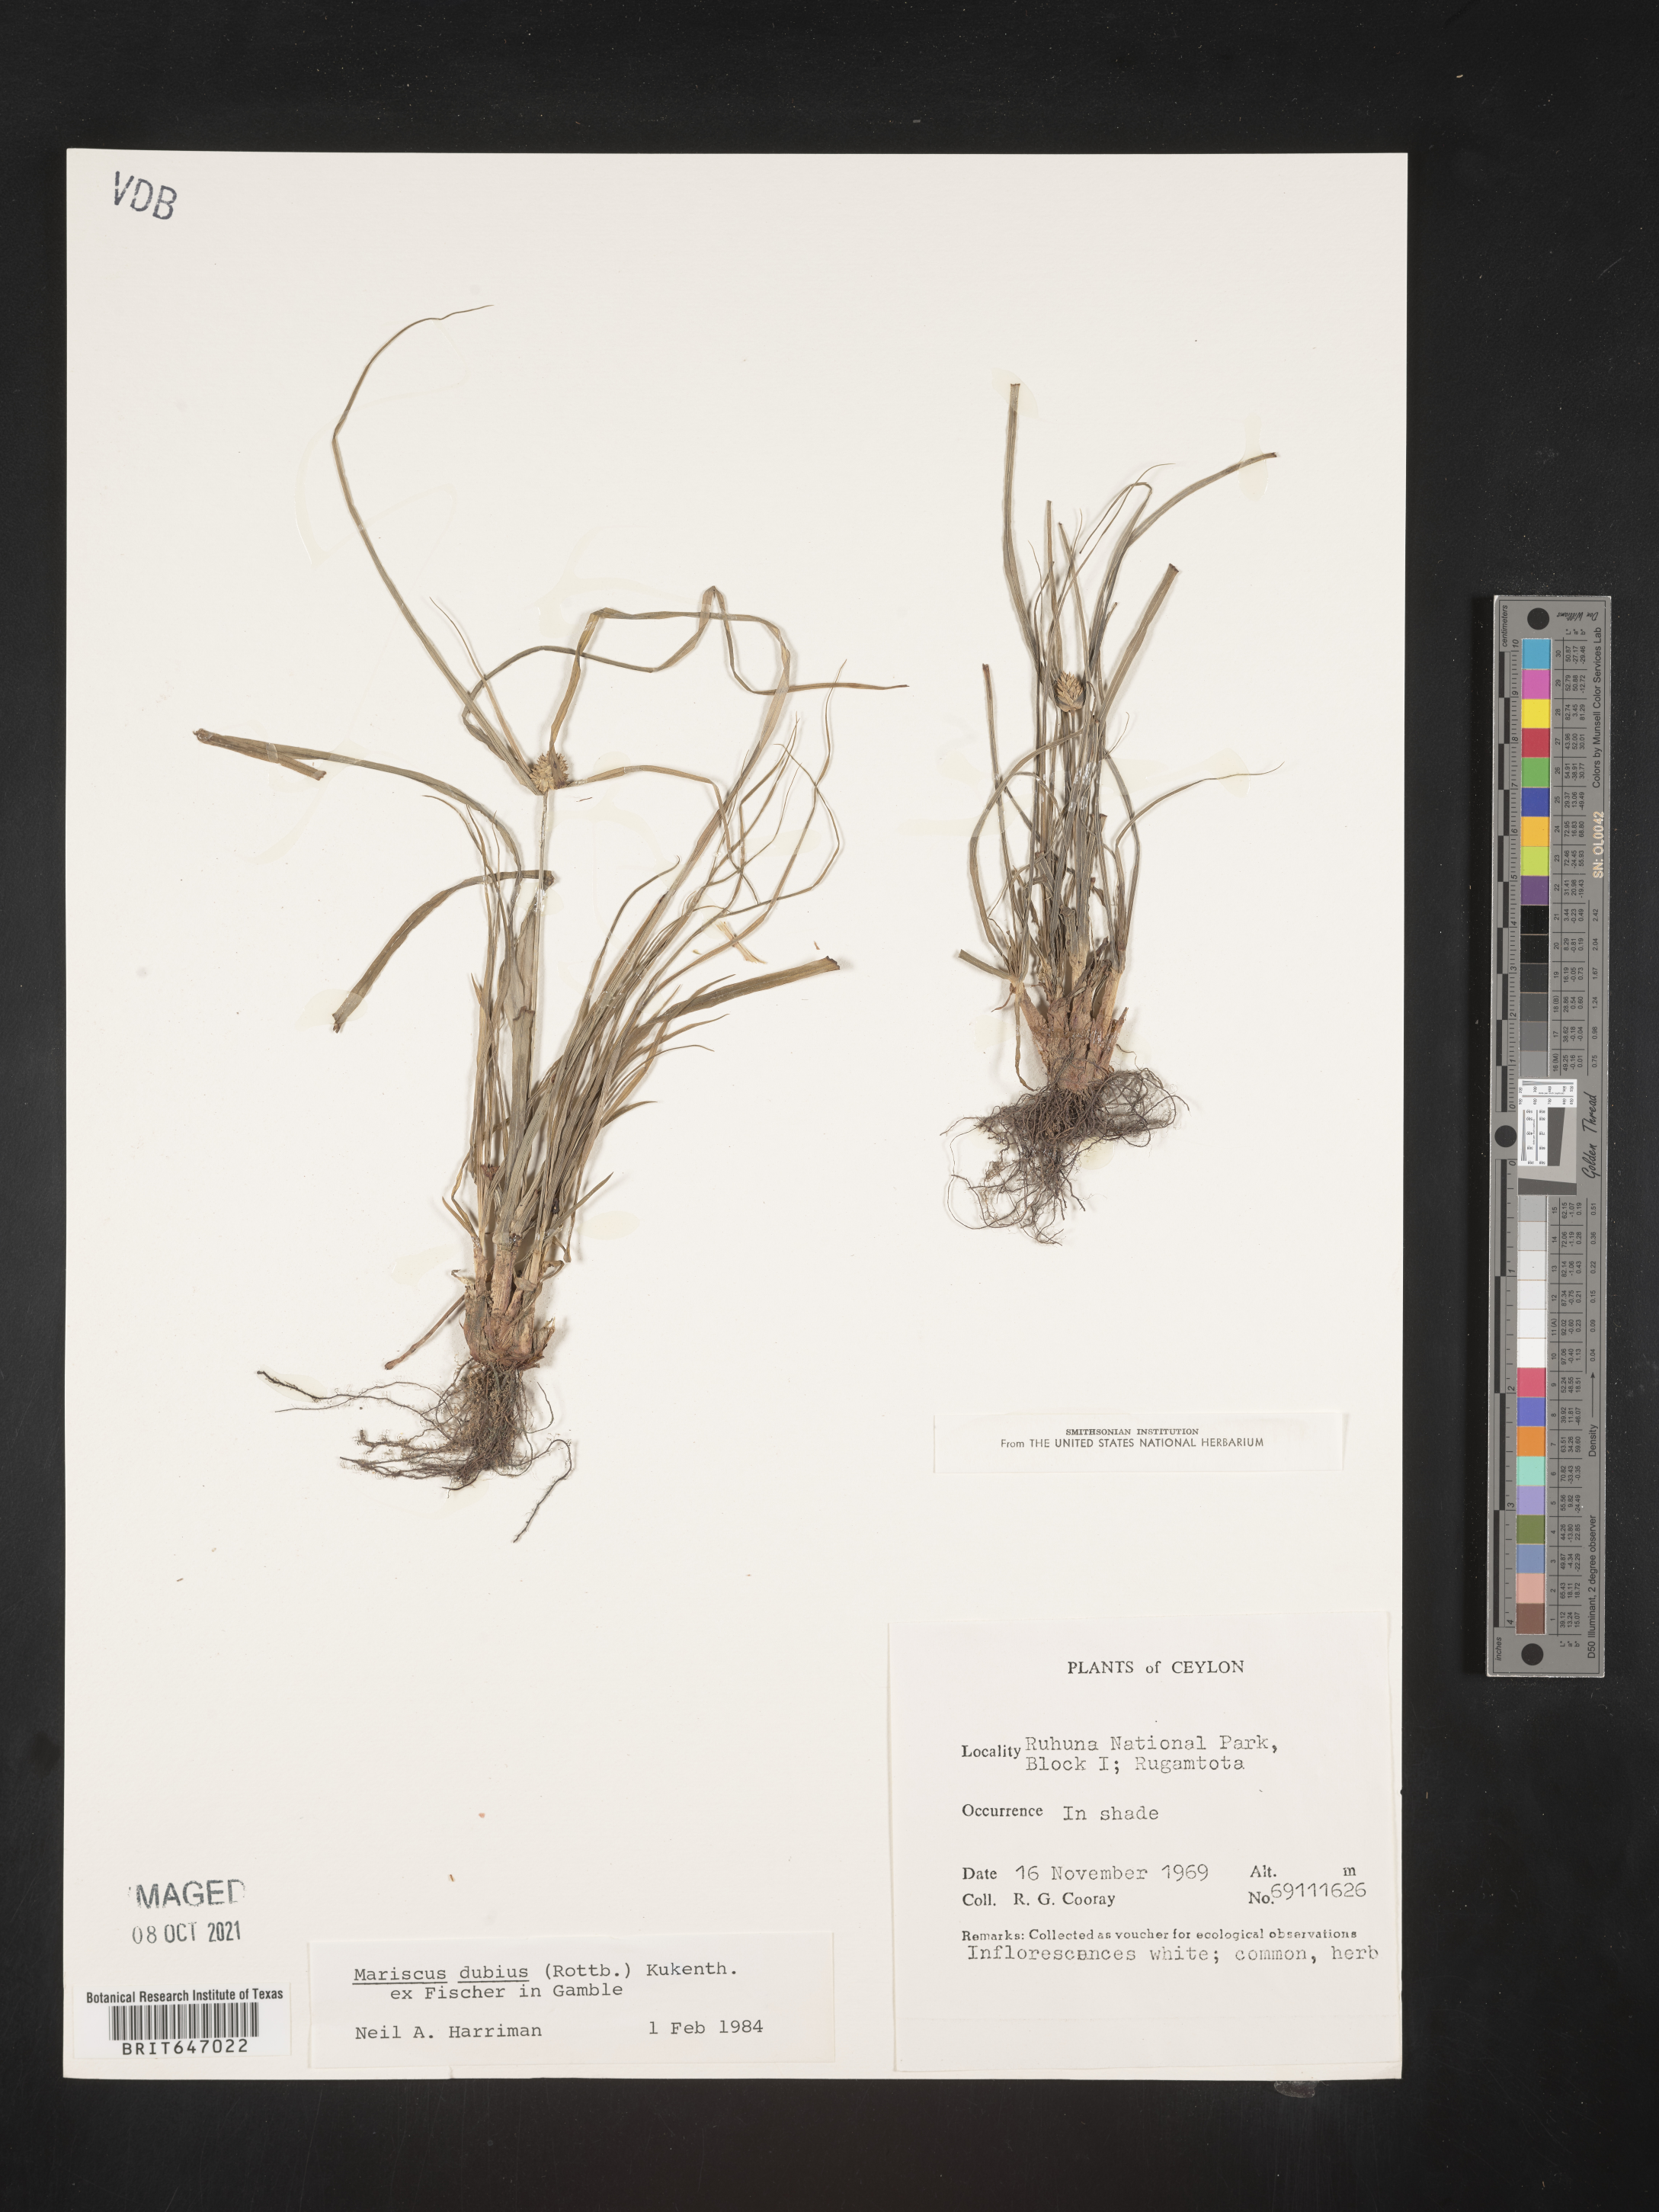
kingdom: Plantae
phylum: Tracheophyta
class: Liliopsida
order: Poales
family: Cyperaceae
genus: Cyperus
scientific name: Cyperus dubius
